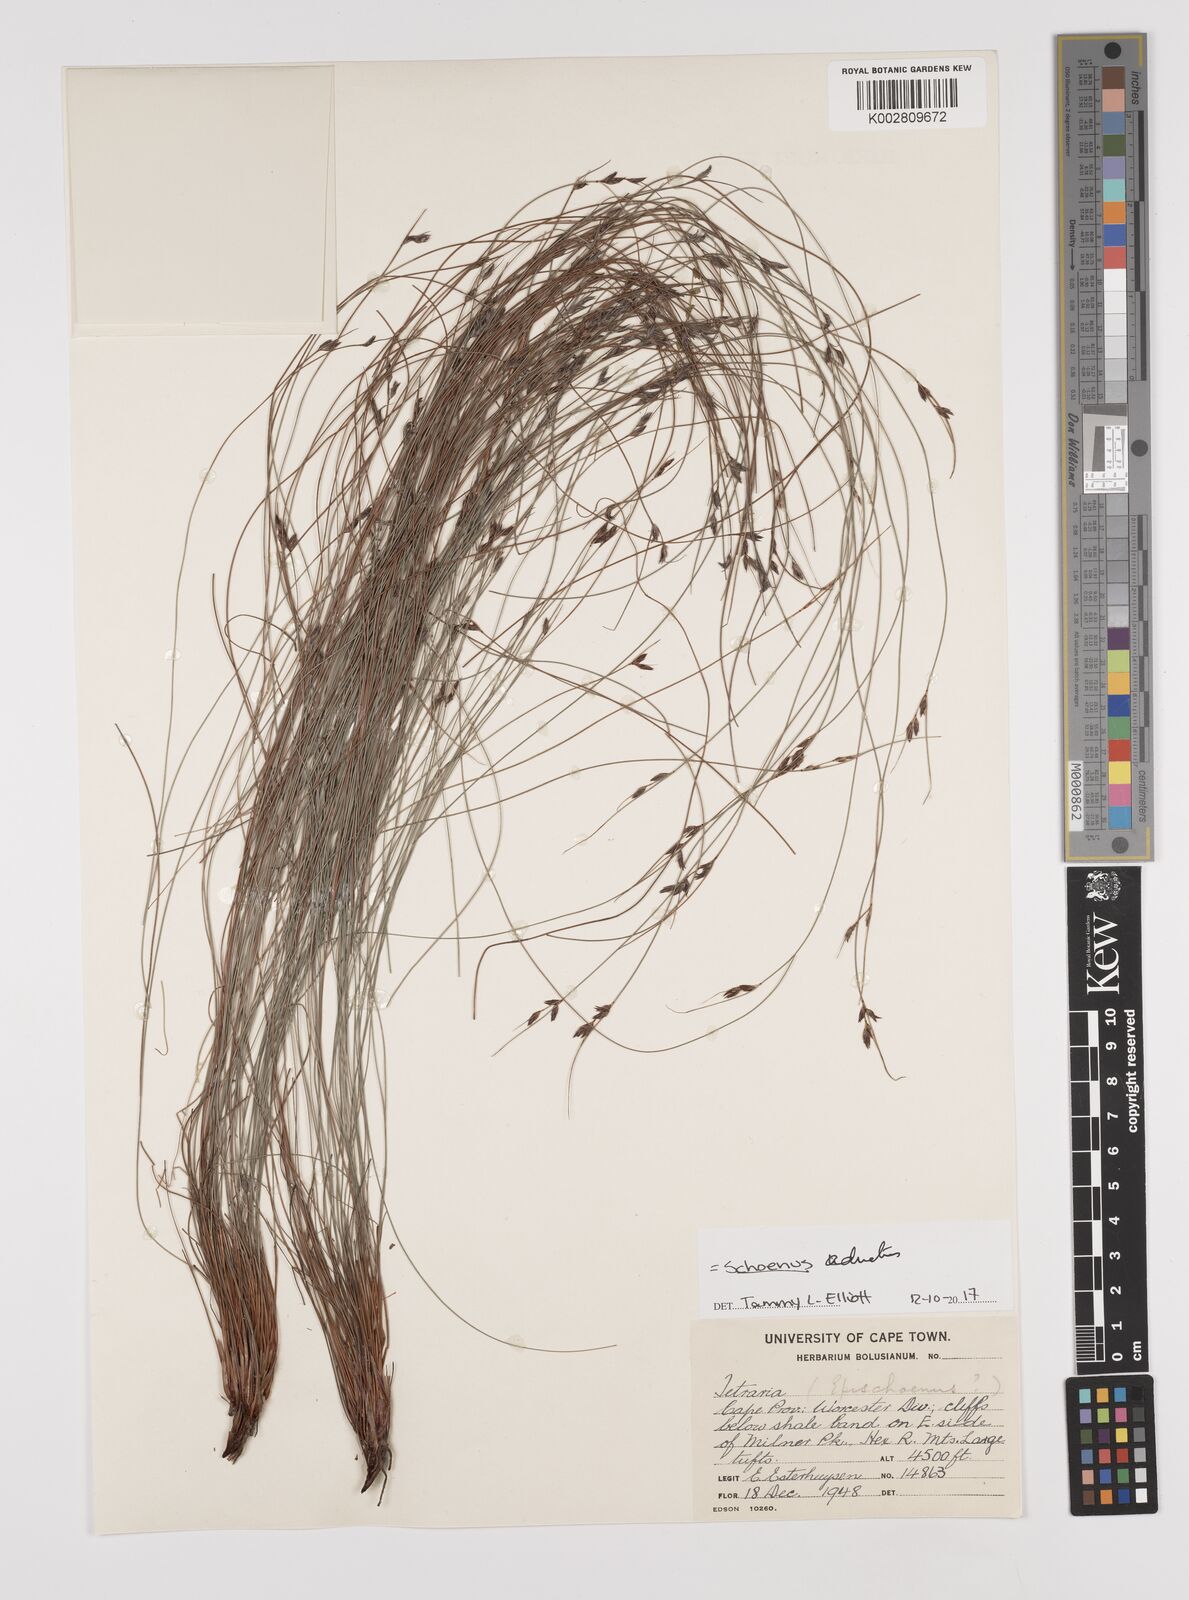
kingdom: Plantae
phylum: Tracheophyta
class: Liliopsida
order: Poales
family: Cyperaceae
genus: Schoenus
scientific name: Schoenus adnatus
